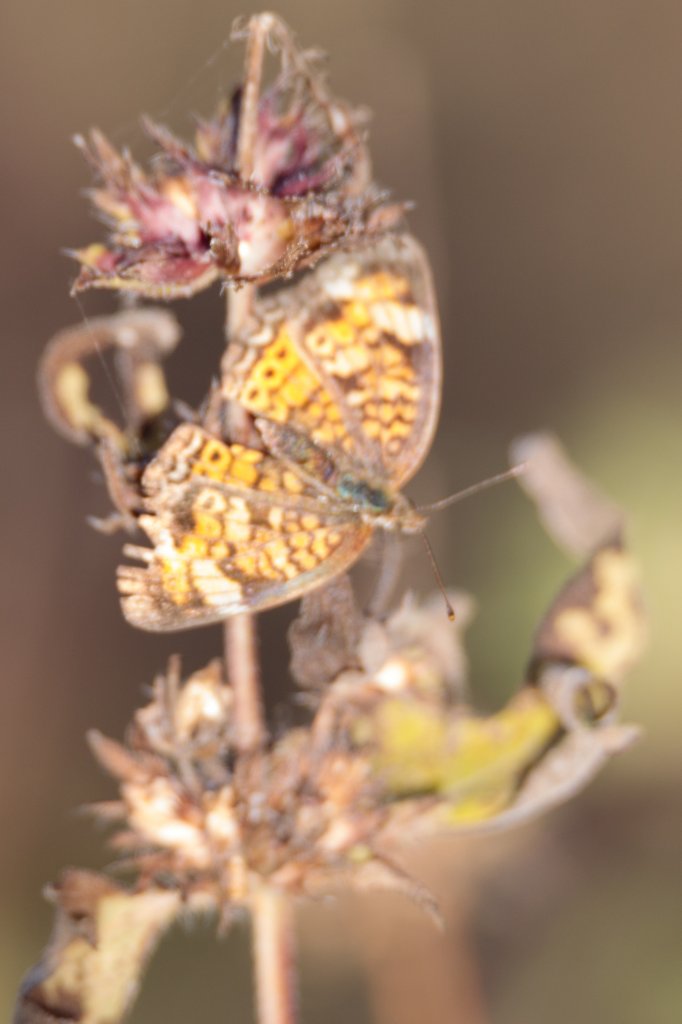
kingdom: Animalia
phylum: Arthropoda
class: Insecta
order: Lepidoptera
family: Nymphalidae
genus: Phyciodes
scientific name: Phyciodes tharos
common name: Pearl Crescent
